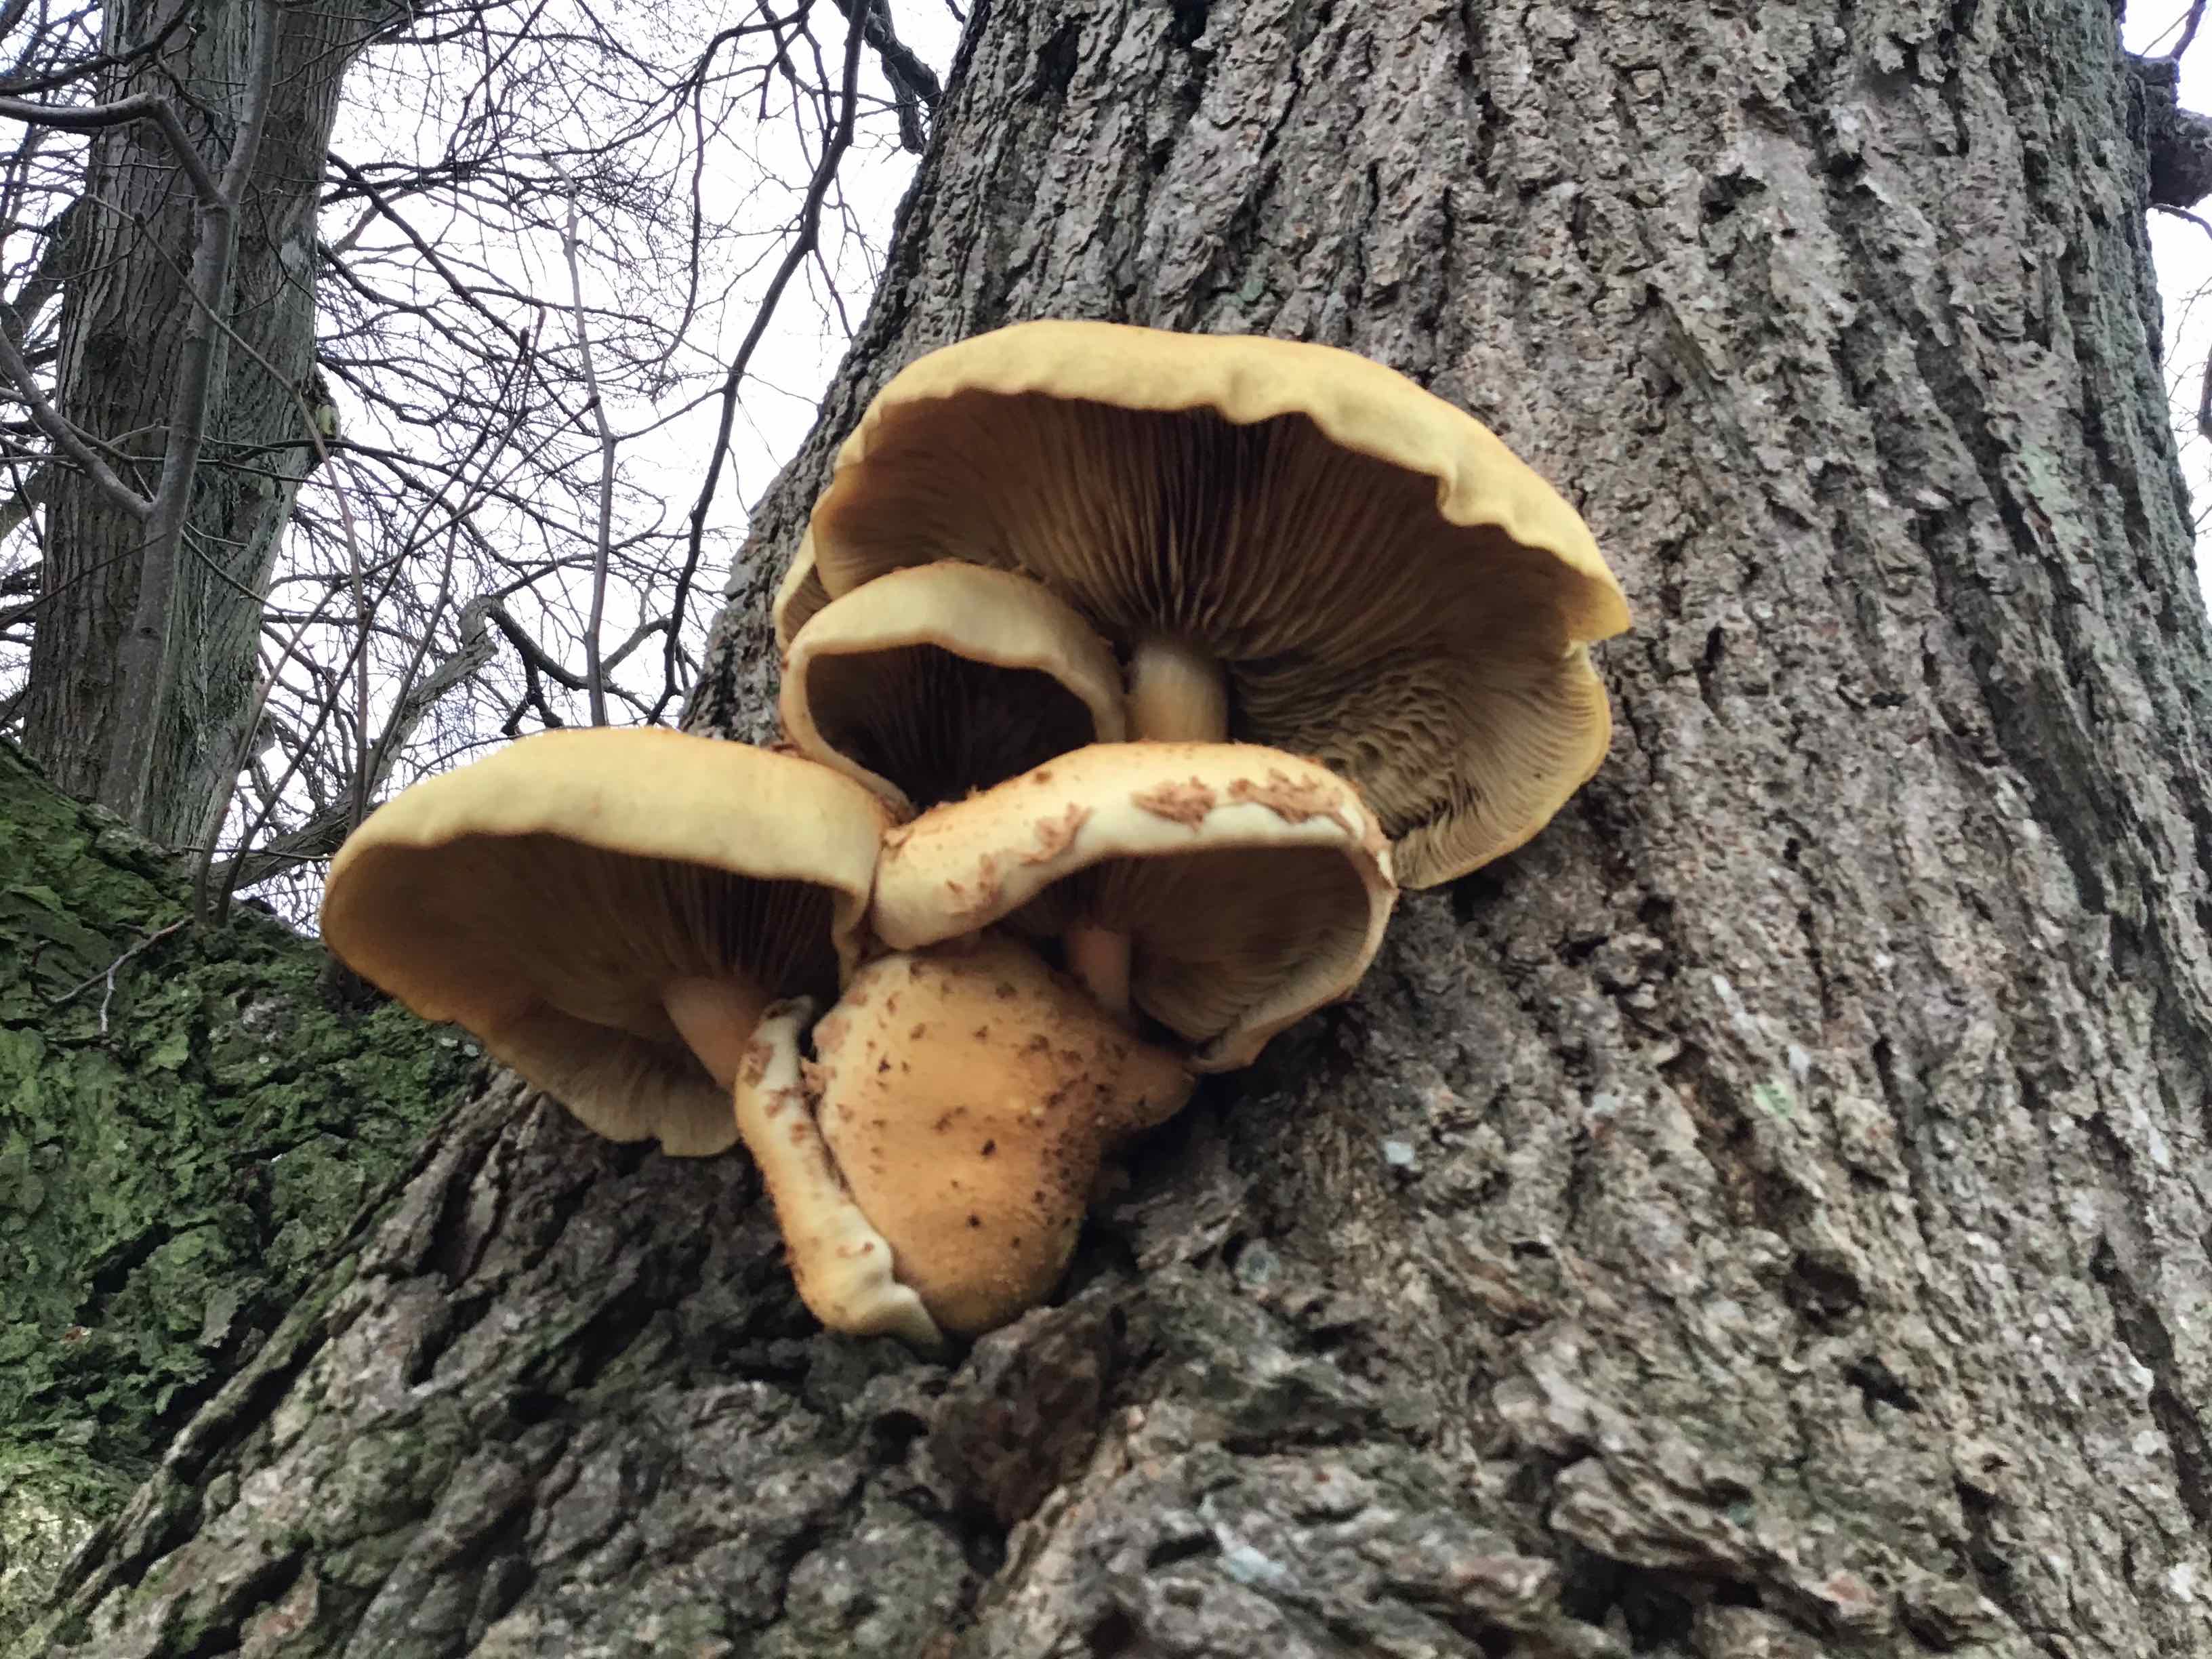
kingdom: Fungi
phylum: Basidiomycota
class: Agaricomycetes
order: Agaricales
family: Strophariaceae
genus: Pholiota
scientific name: Pholiota squarrosa
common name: krumskællet skælhat
